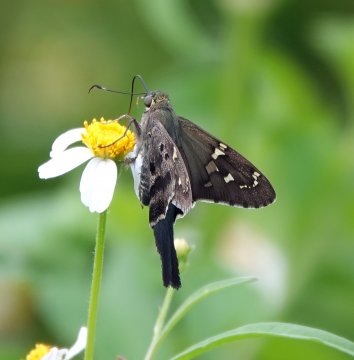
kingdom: Animalia
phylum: Arthropoda
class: Insecta
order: Lepidoptera
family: Hesperiidae
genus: Urbanus
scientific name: Urbanus proteus
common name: Long-tailed Skipper
